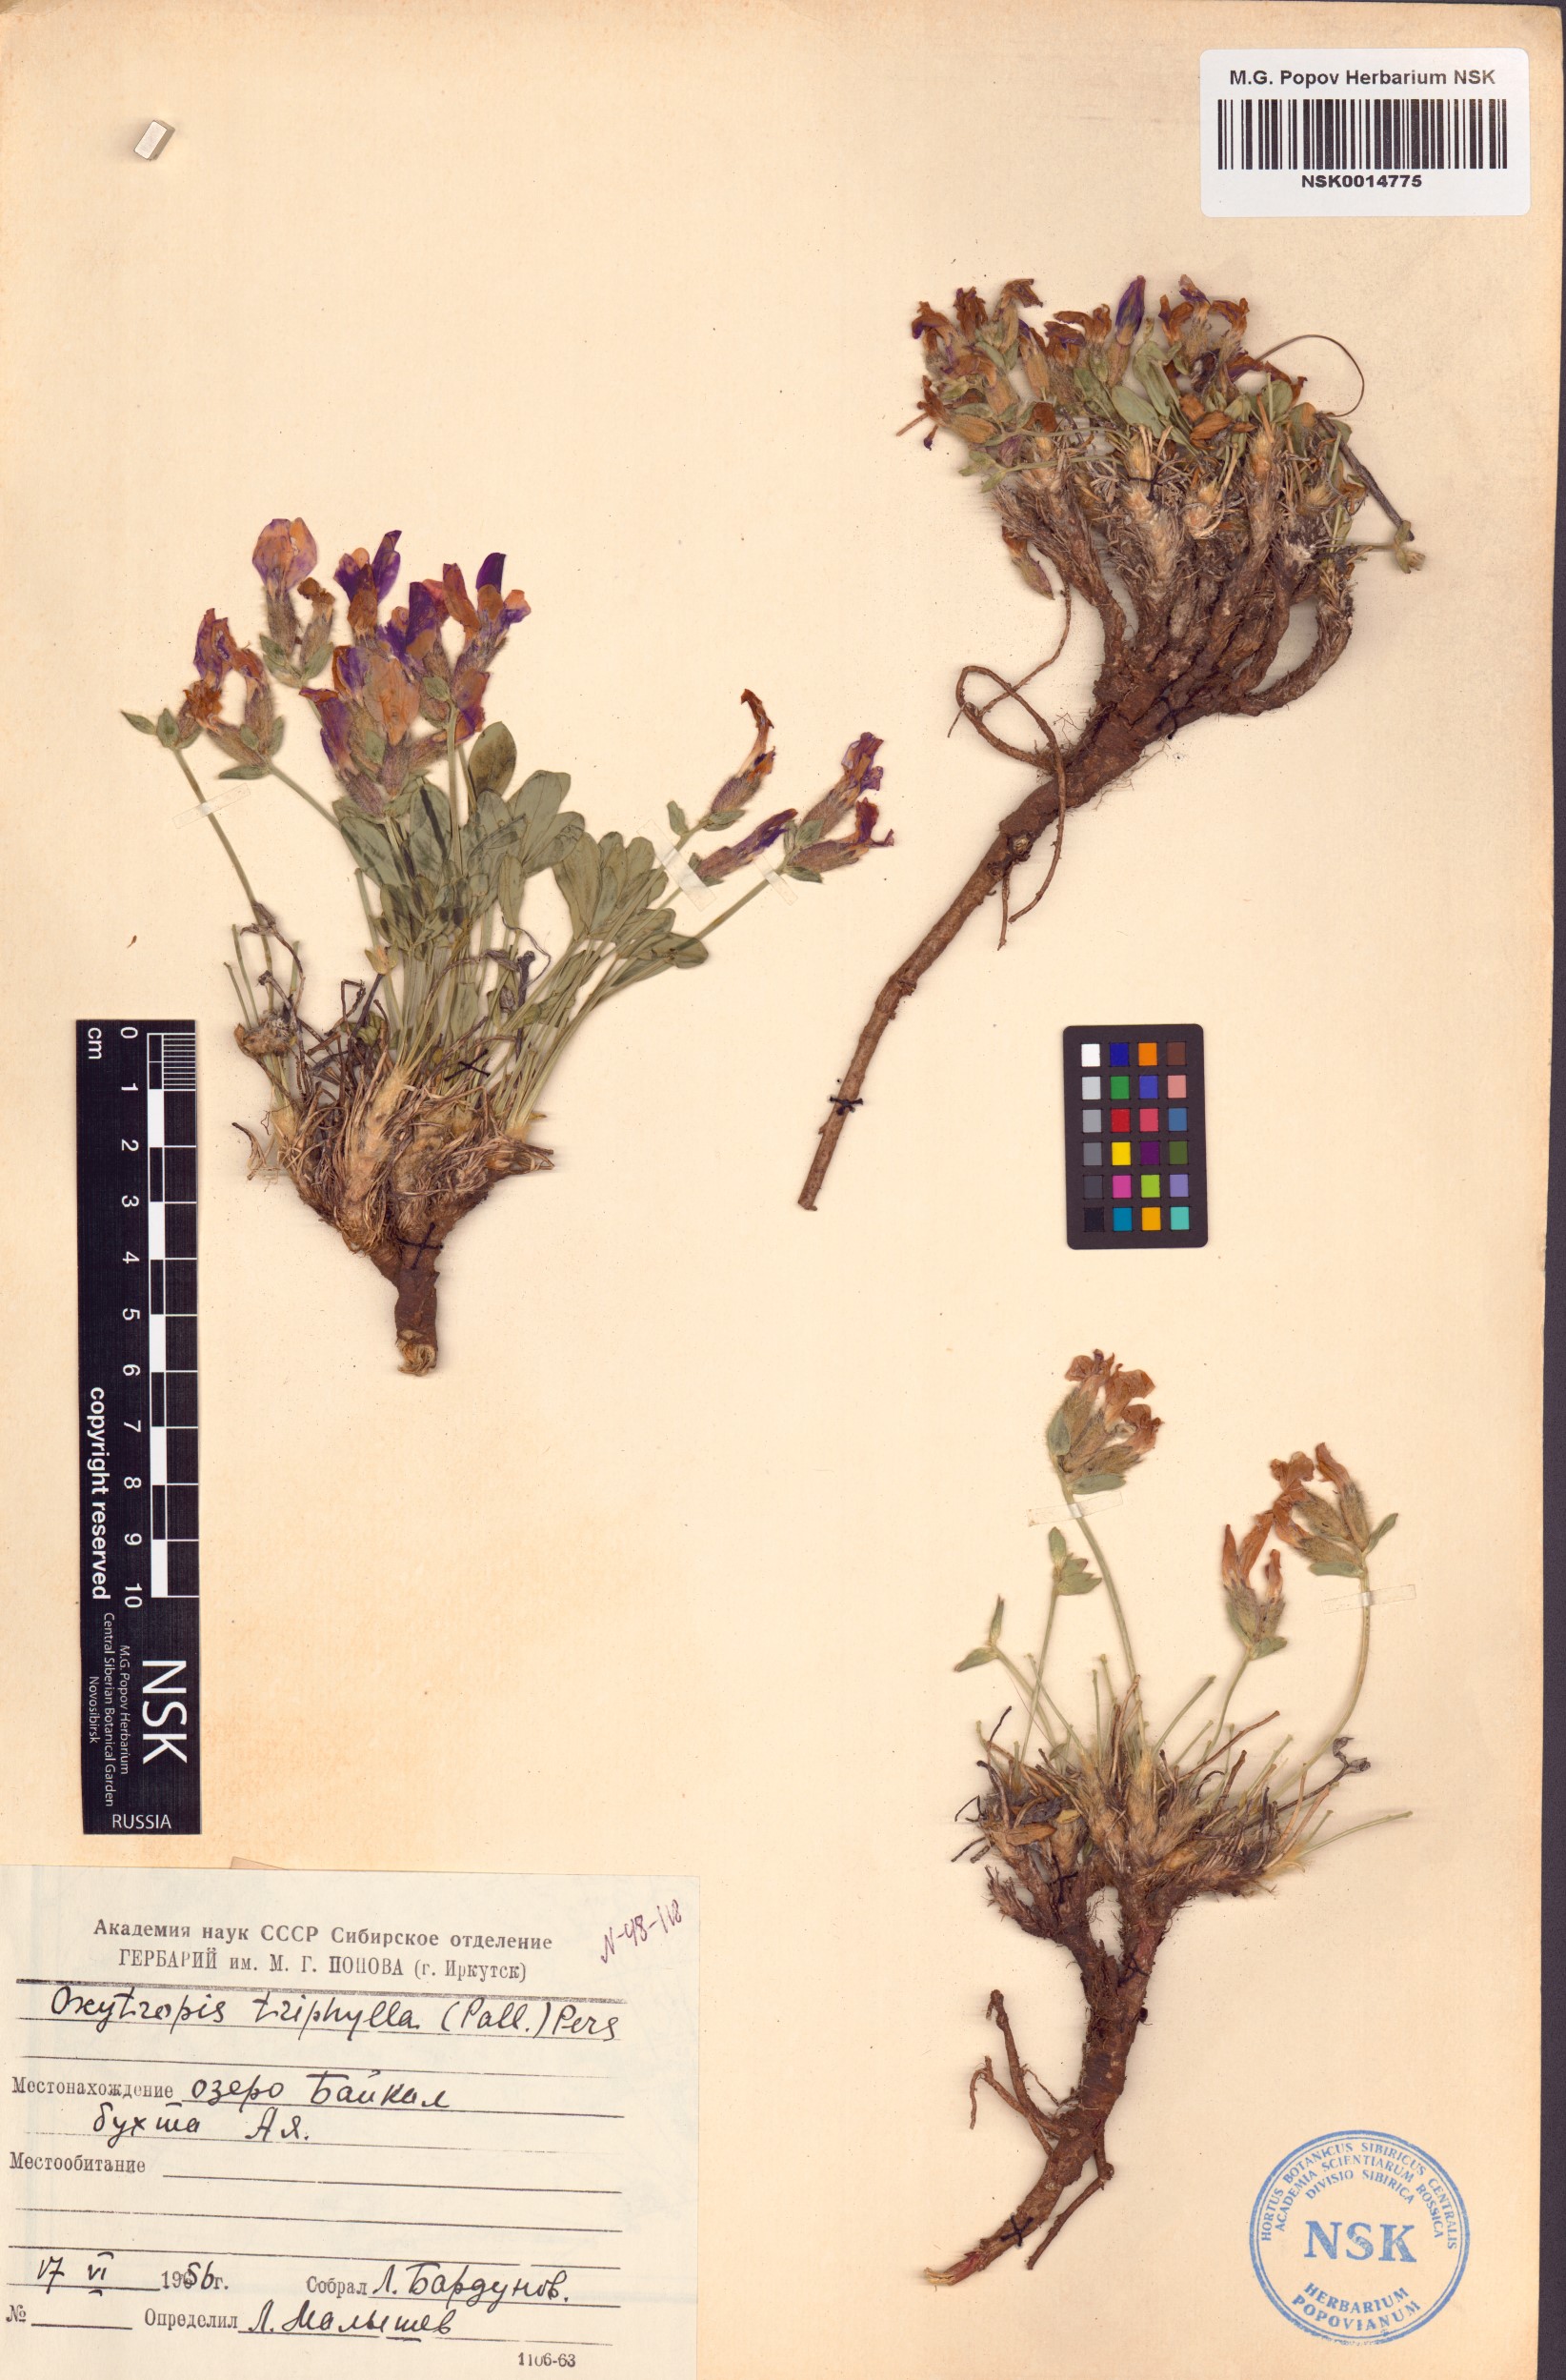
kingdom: Plantae
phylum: Tracheophyta
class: Magnoliopsida
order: Fabales
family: Fabaceae
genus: Oxytropis
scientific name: Oxytropis triphylla
